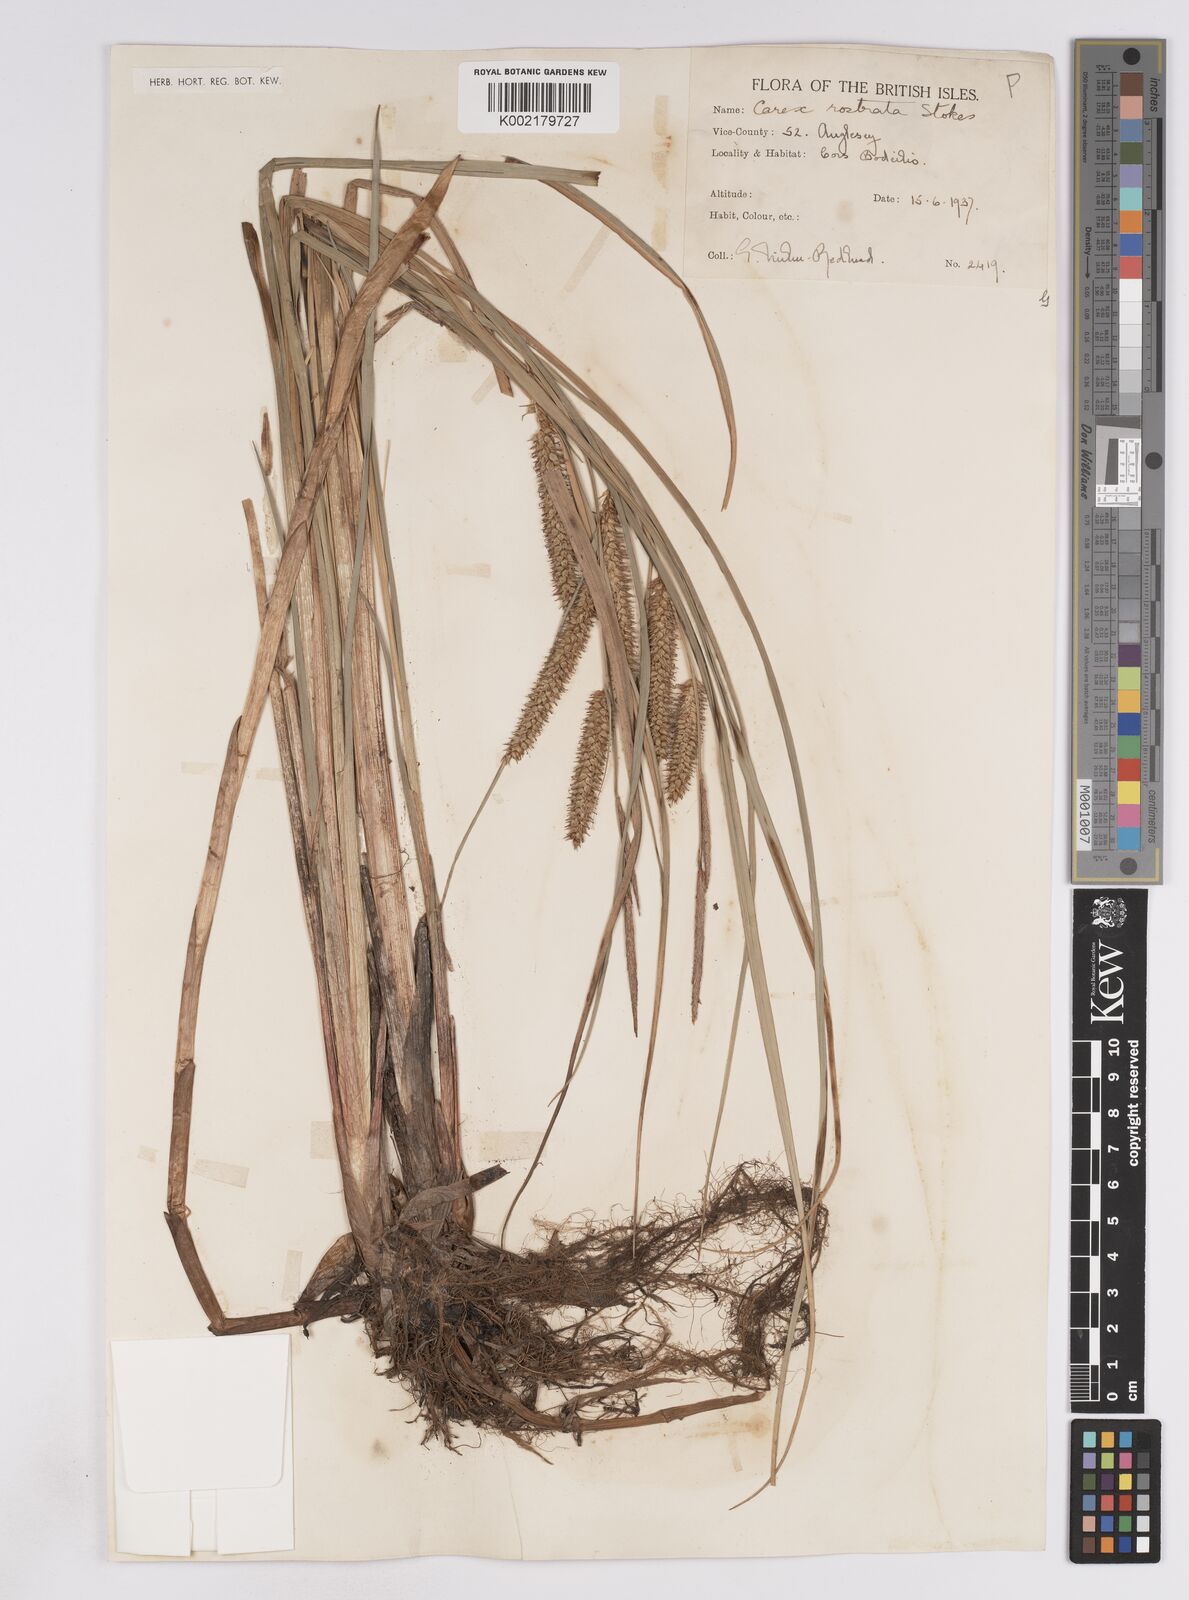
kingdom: Plantae
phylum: Tracheophyta
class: Liliopsida
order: Poales
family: Cyperaceae
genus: Carex
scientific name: Carex rostrata
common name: Bottle sedge
